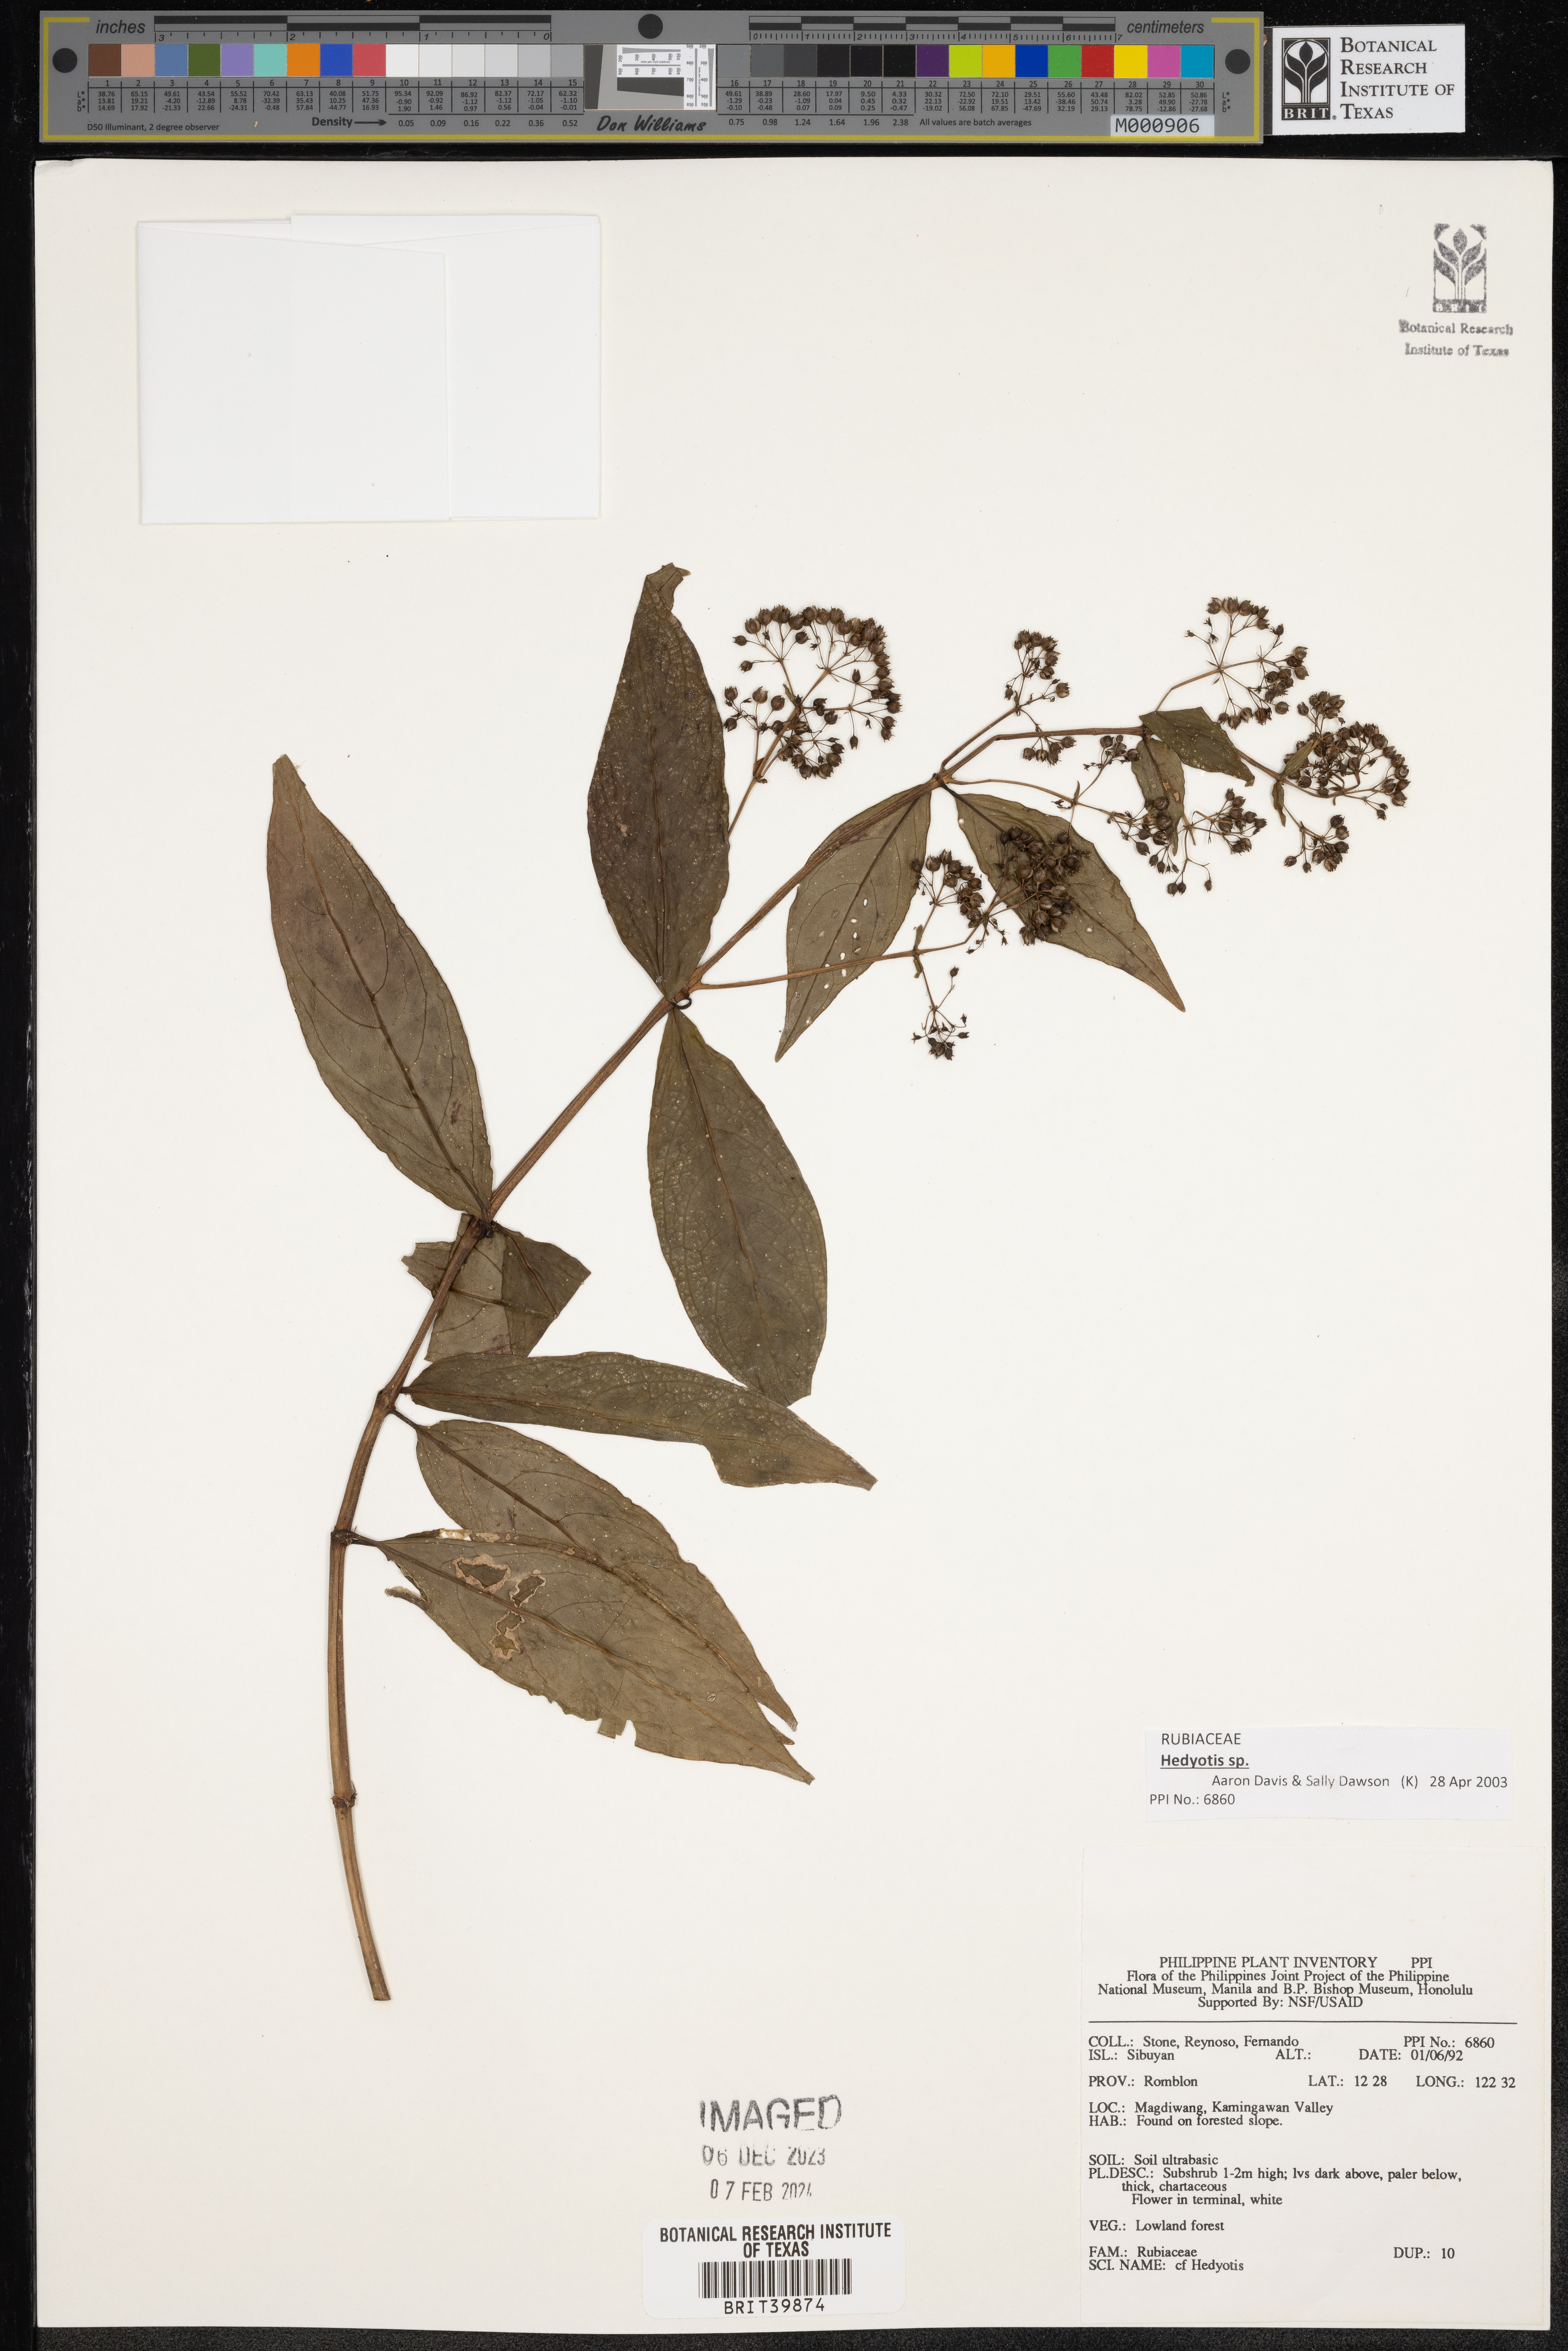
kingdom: Plantae
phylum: Tracheophyta
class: Magnoliopsida
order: Gentianales
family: Rubiaceae
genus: Hedyotis
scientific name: Hedyotis
